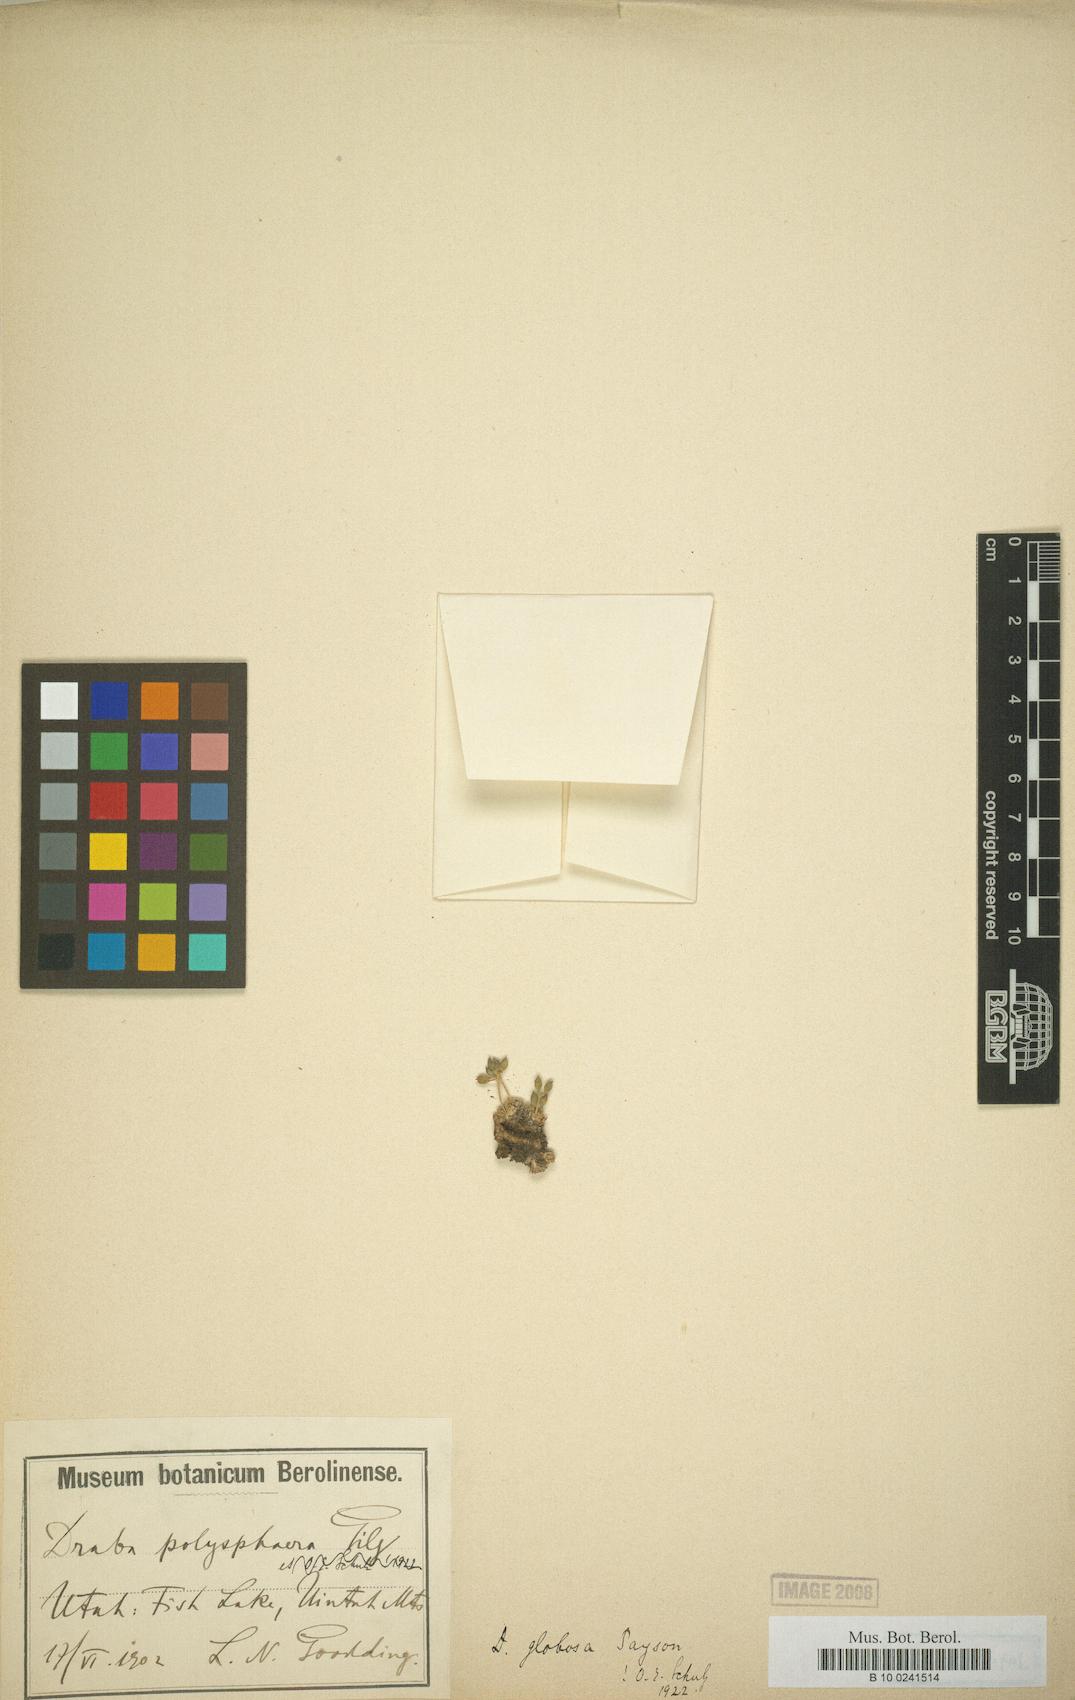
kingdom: Plantae
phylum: Tracheophyta
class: Magnoliopsida
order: Brassicales
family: Brassicaceae
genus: Draba
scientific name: Draba globosa
